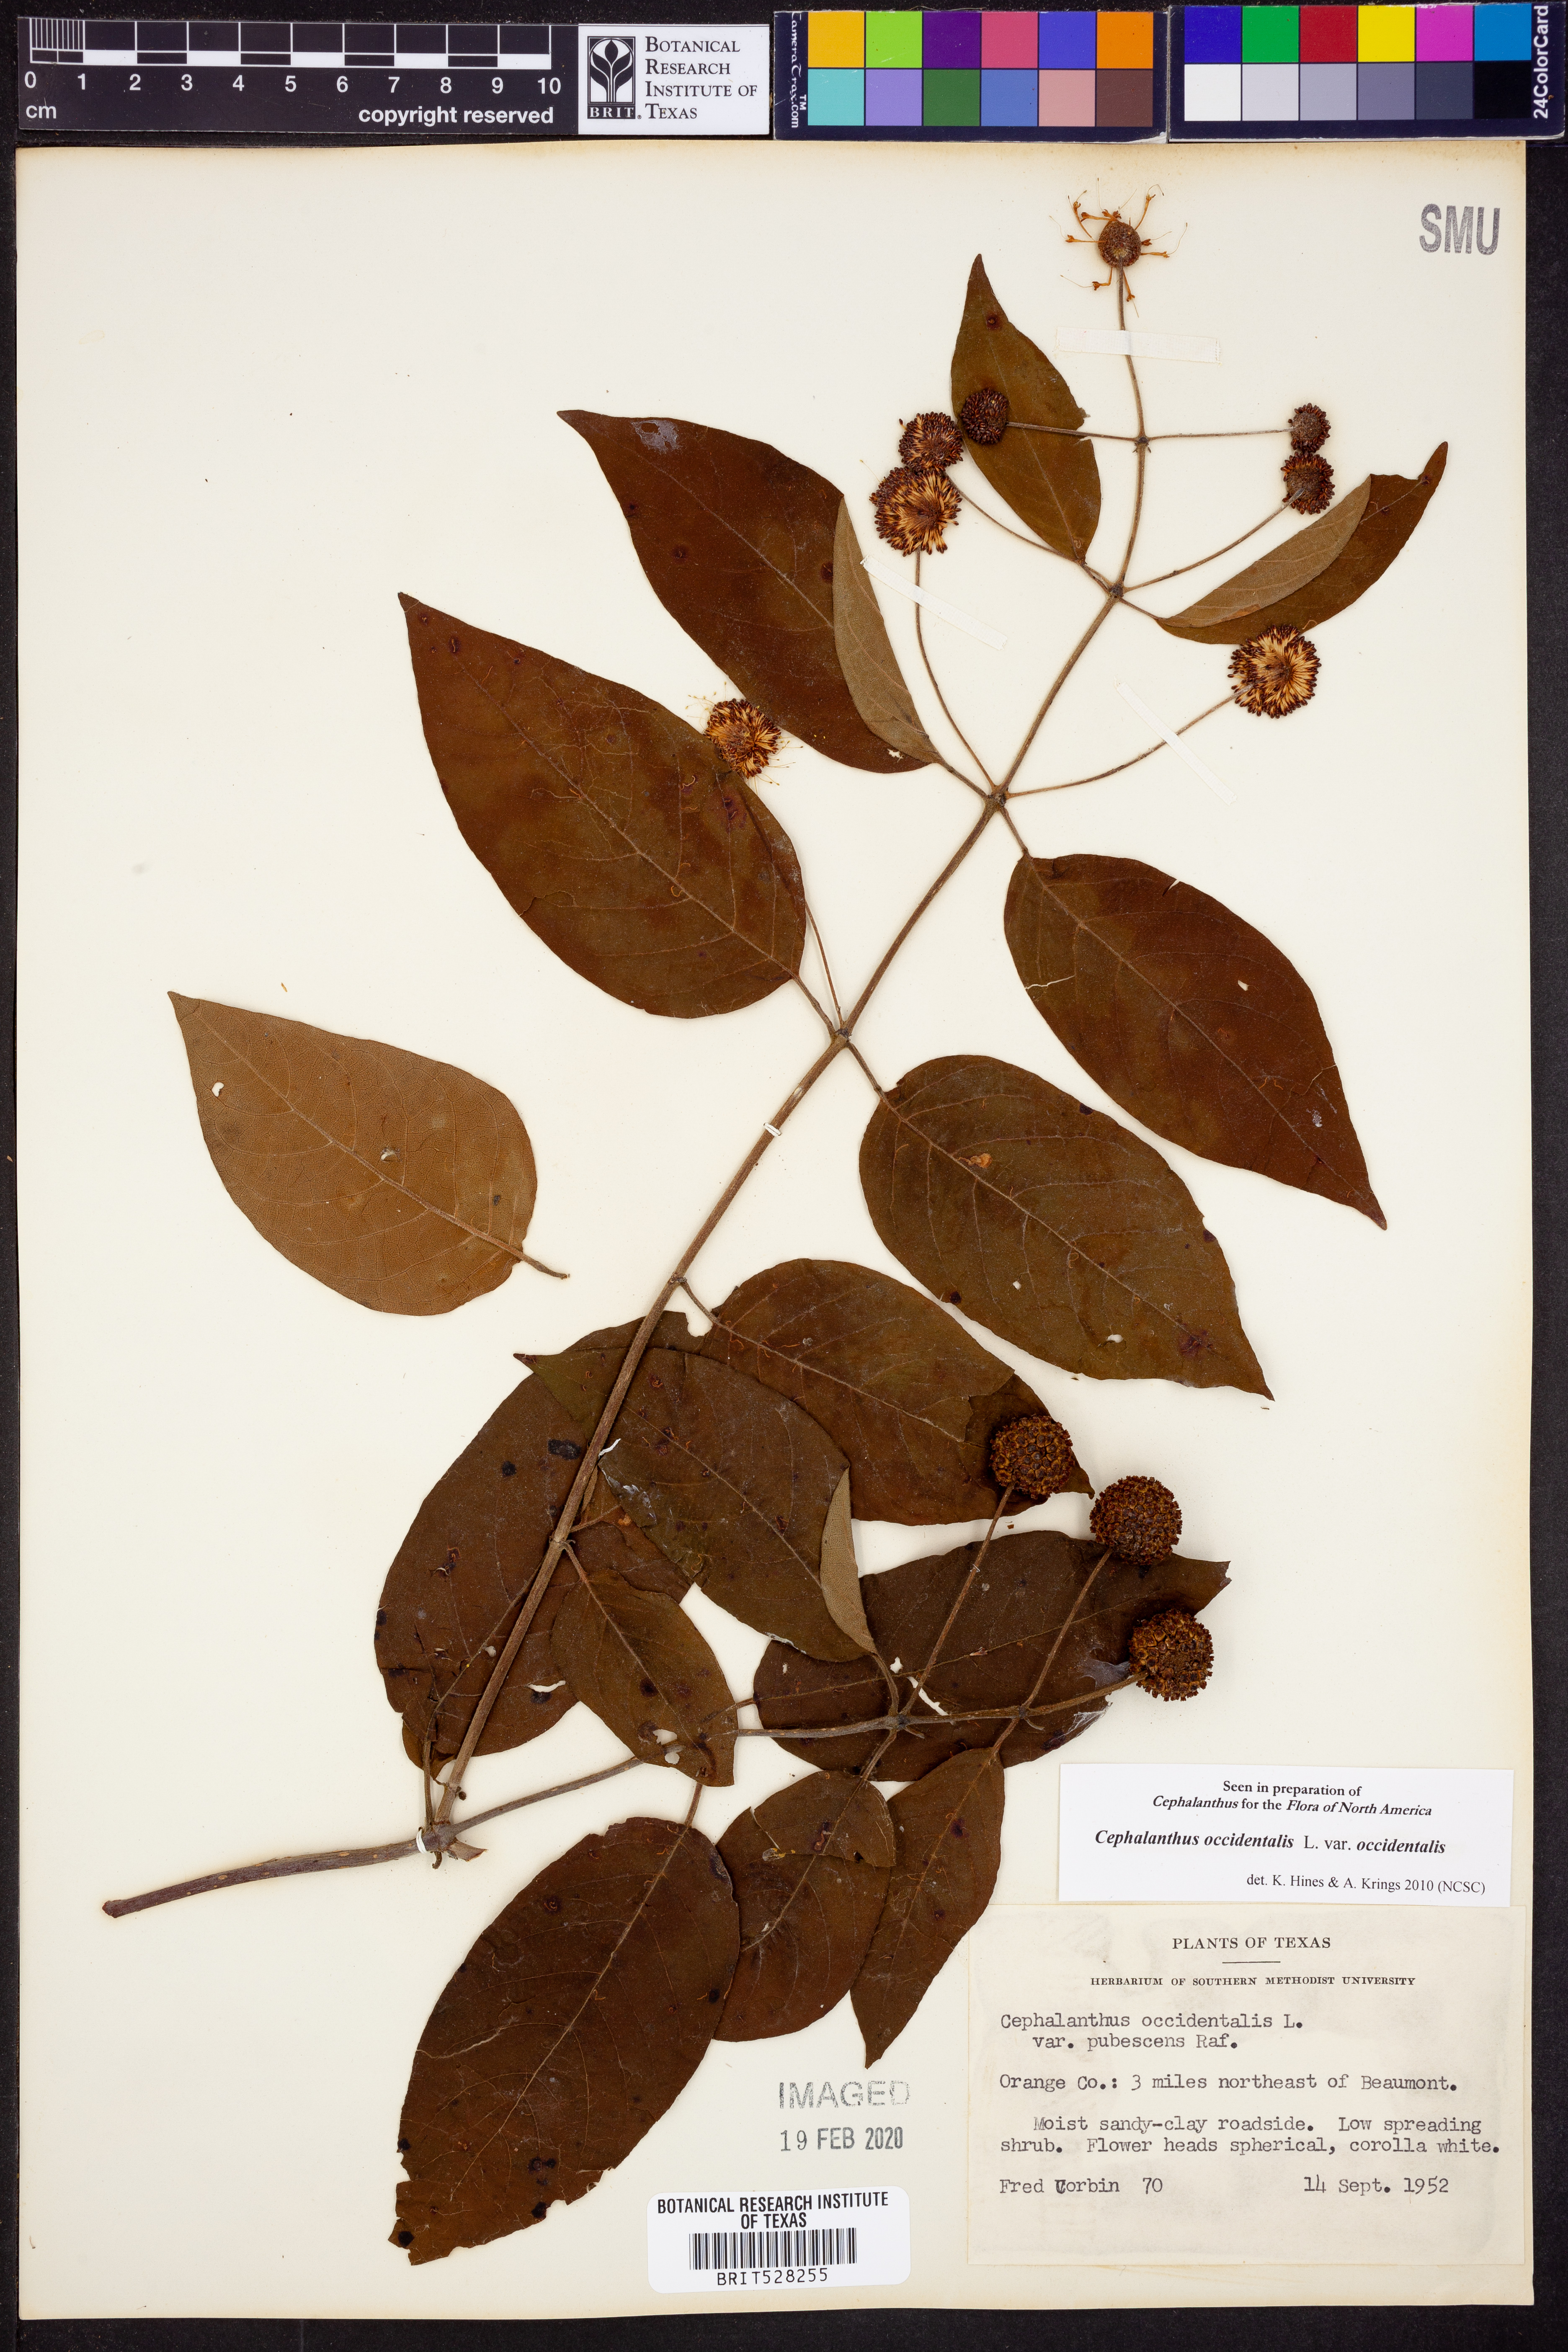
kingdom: Plantae
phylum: Tracheophyta
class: Magnoliopsida
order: Gentianales
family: Rubiaceae
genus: Cephalanthus
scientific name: Cephalanthus occidentalis
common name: Button-willow
